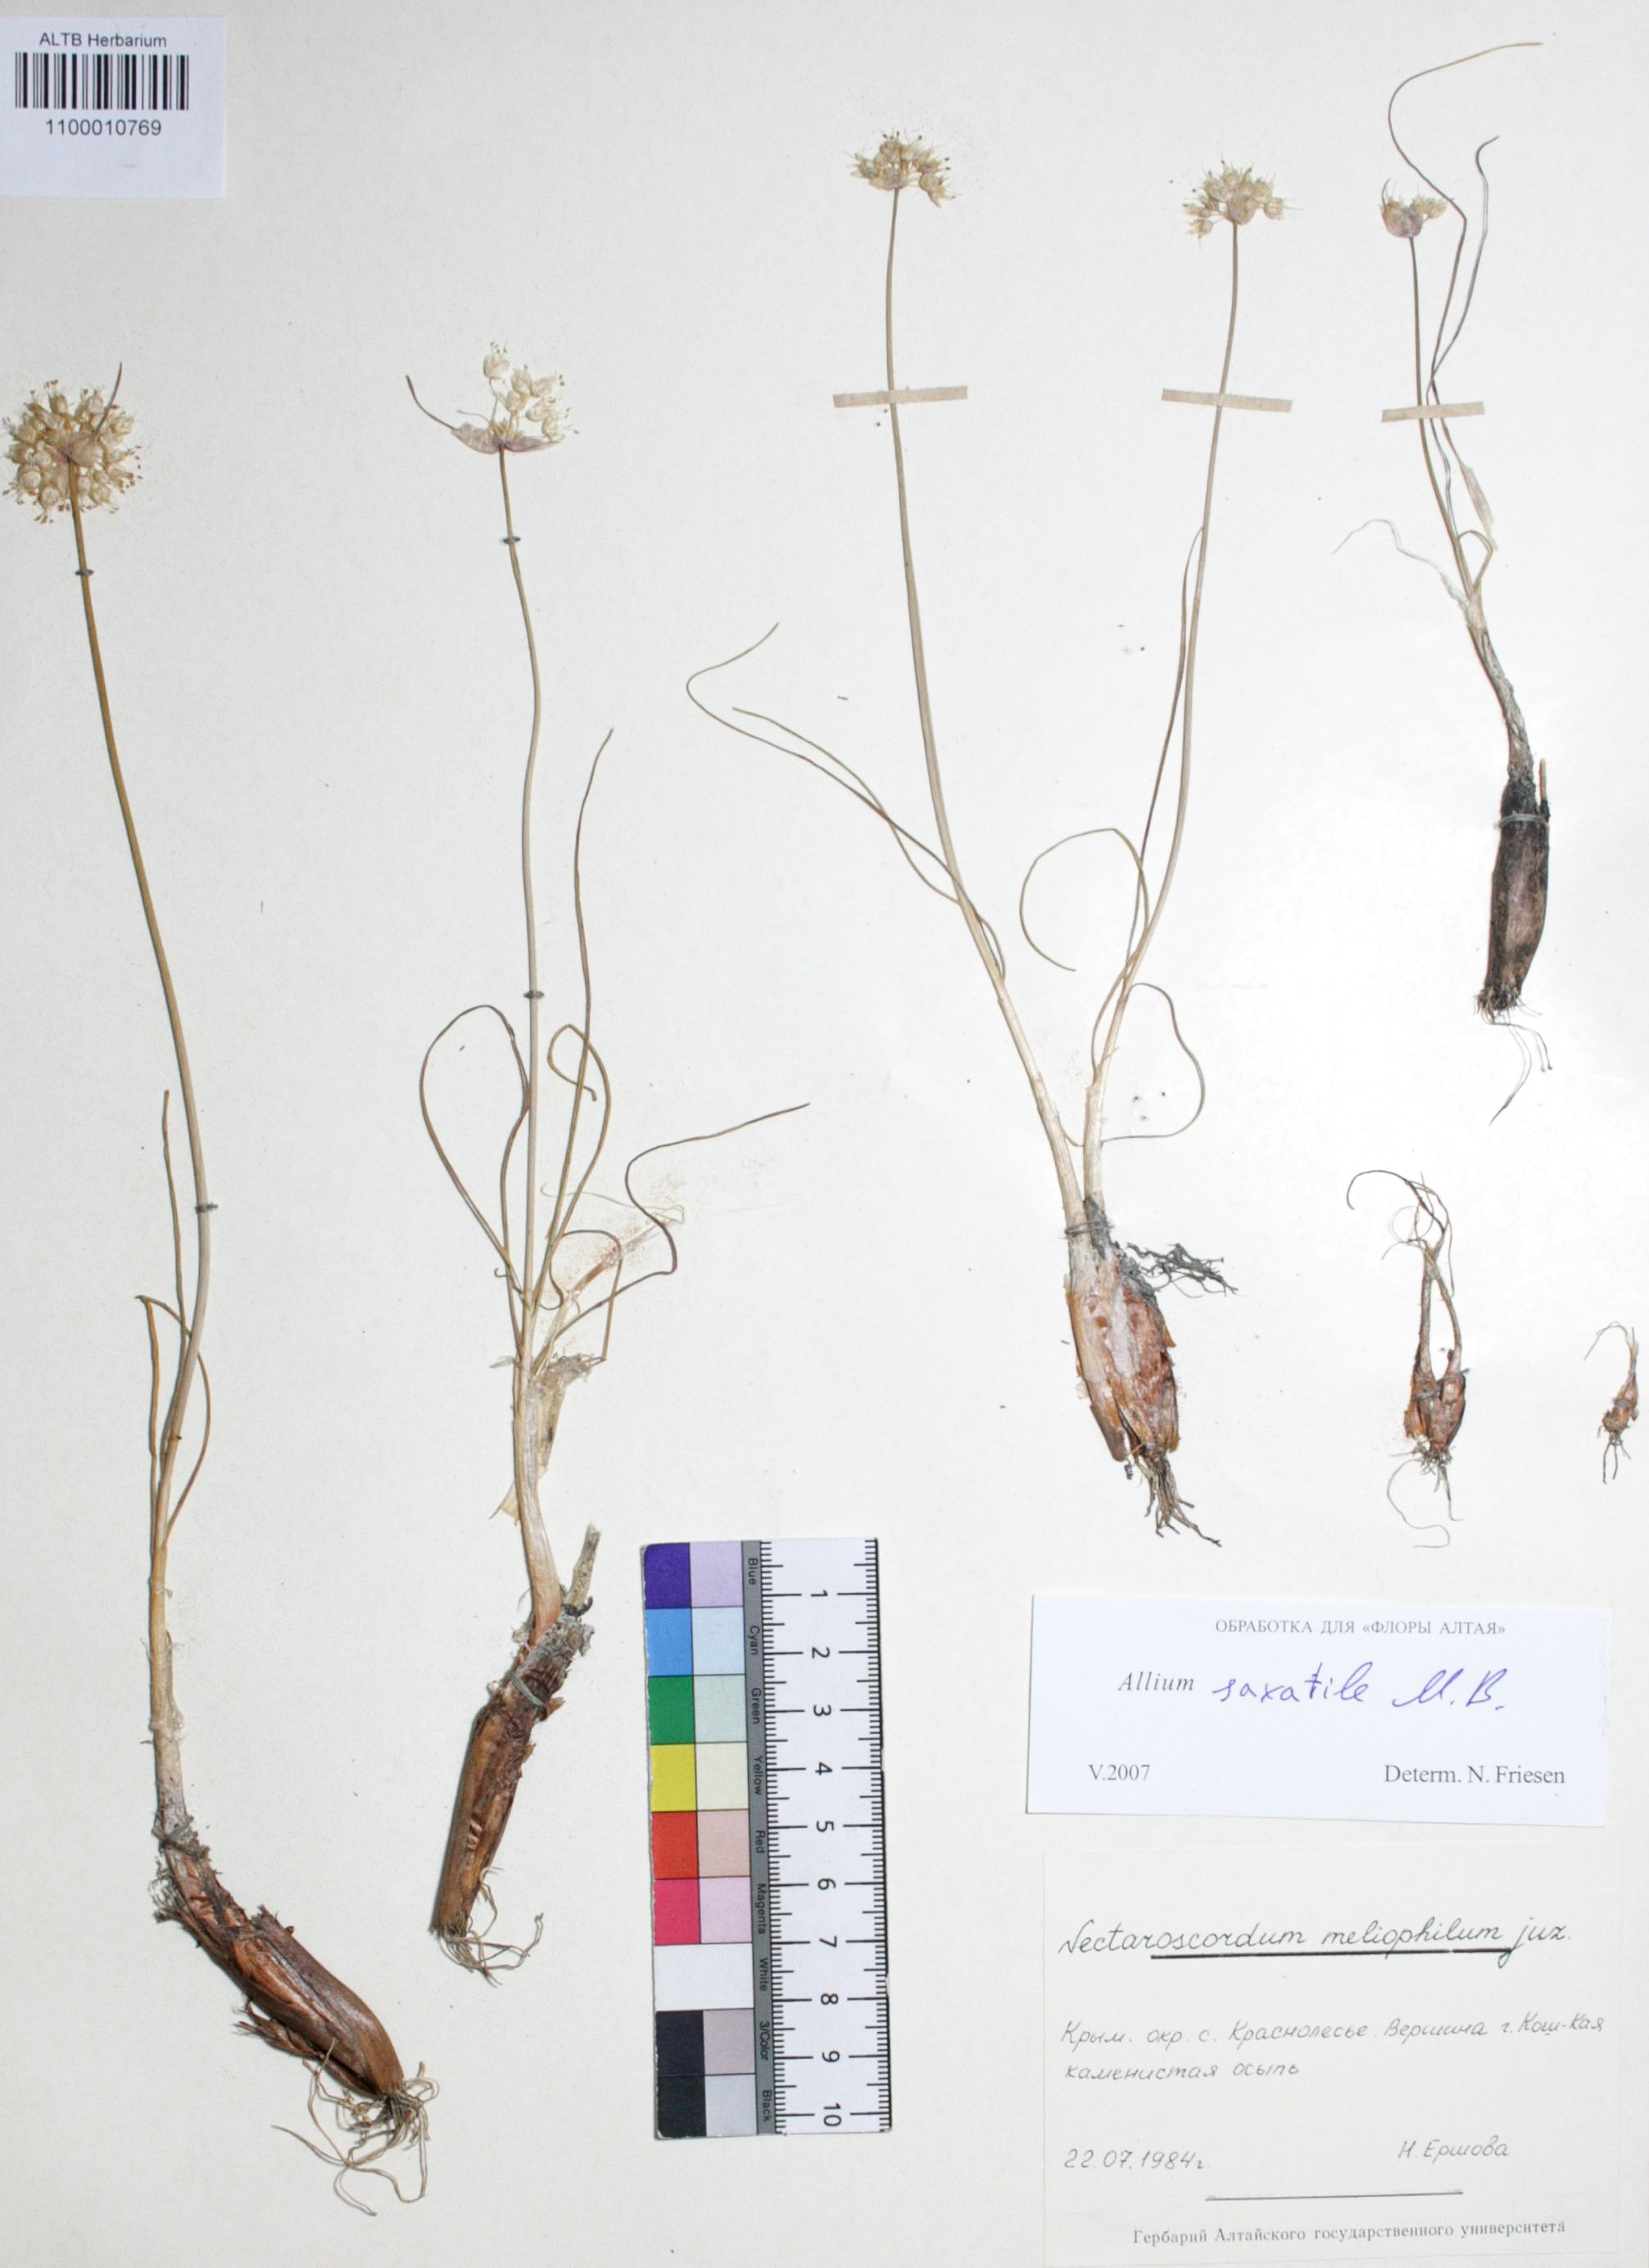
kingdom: Plantae
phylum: Tracheophyta
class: Liliopsida
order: Asparagales
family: Amaryllidaceae
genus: Allium
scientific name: Allium saxatile
